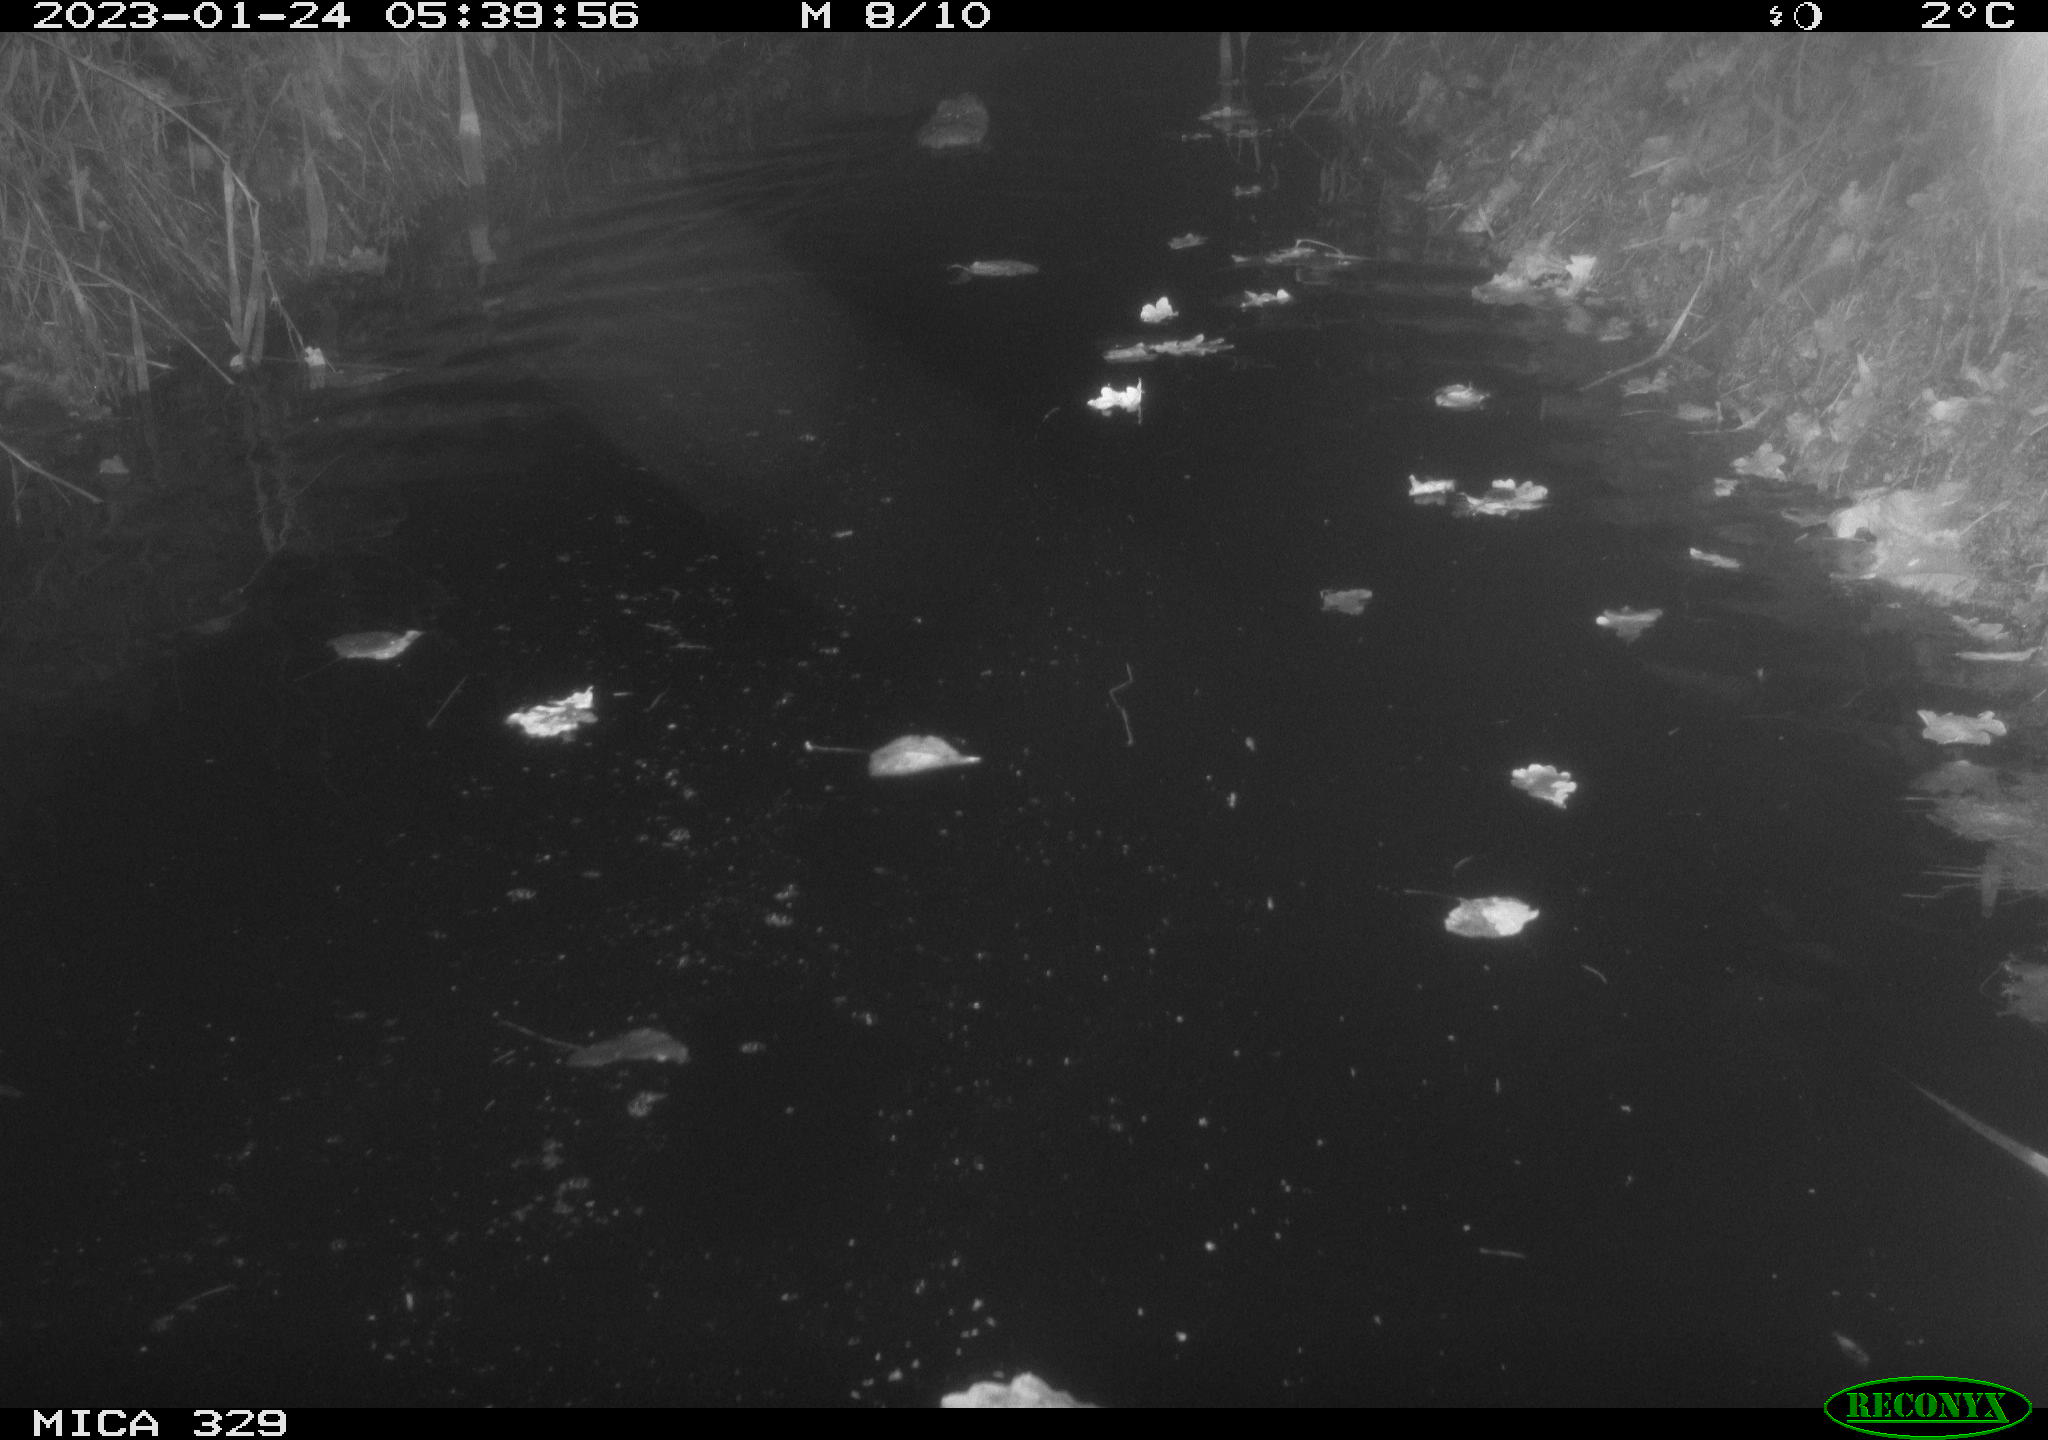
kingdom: Animalia
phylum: Chordata
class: Mammalia
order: Rodentia
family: Cricetidae
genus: Ondatra
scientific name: Ondatra zibethicus
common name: Muskrat
